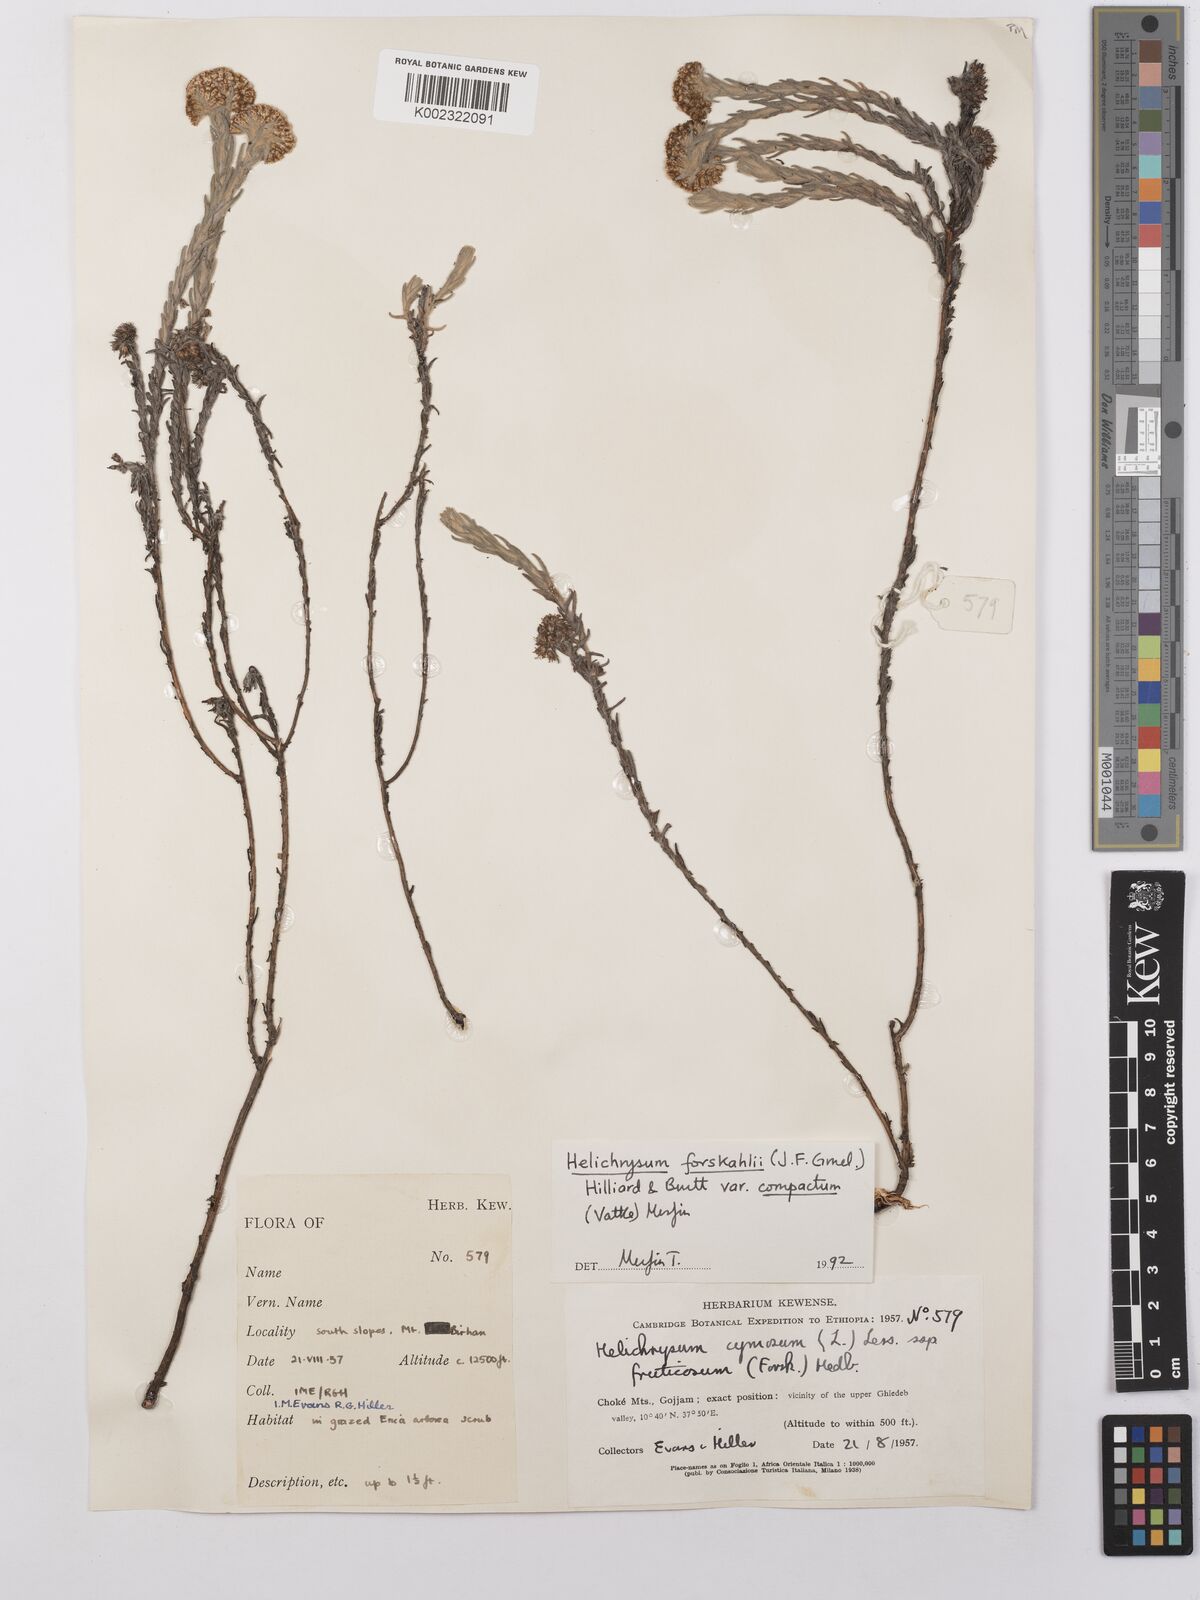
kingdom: Plantae
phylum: Tracheophyta
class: Magnoliopsida
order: Asterales
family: Asteraceae
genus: Helichrysum
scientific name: Helichrysum forskahlii
